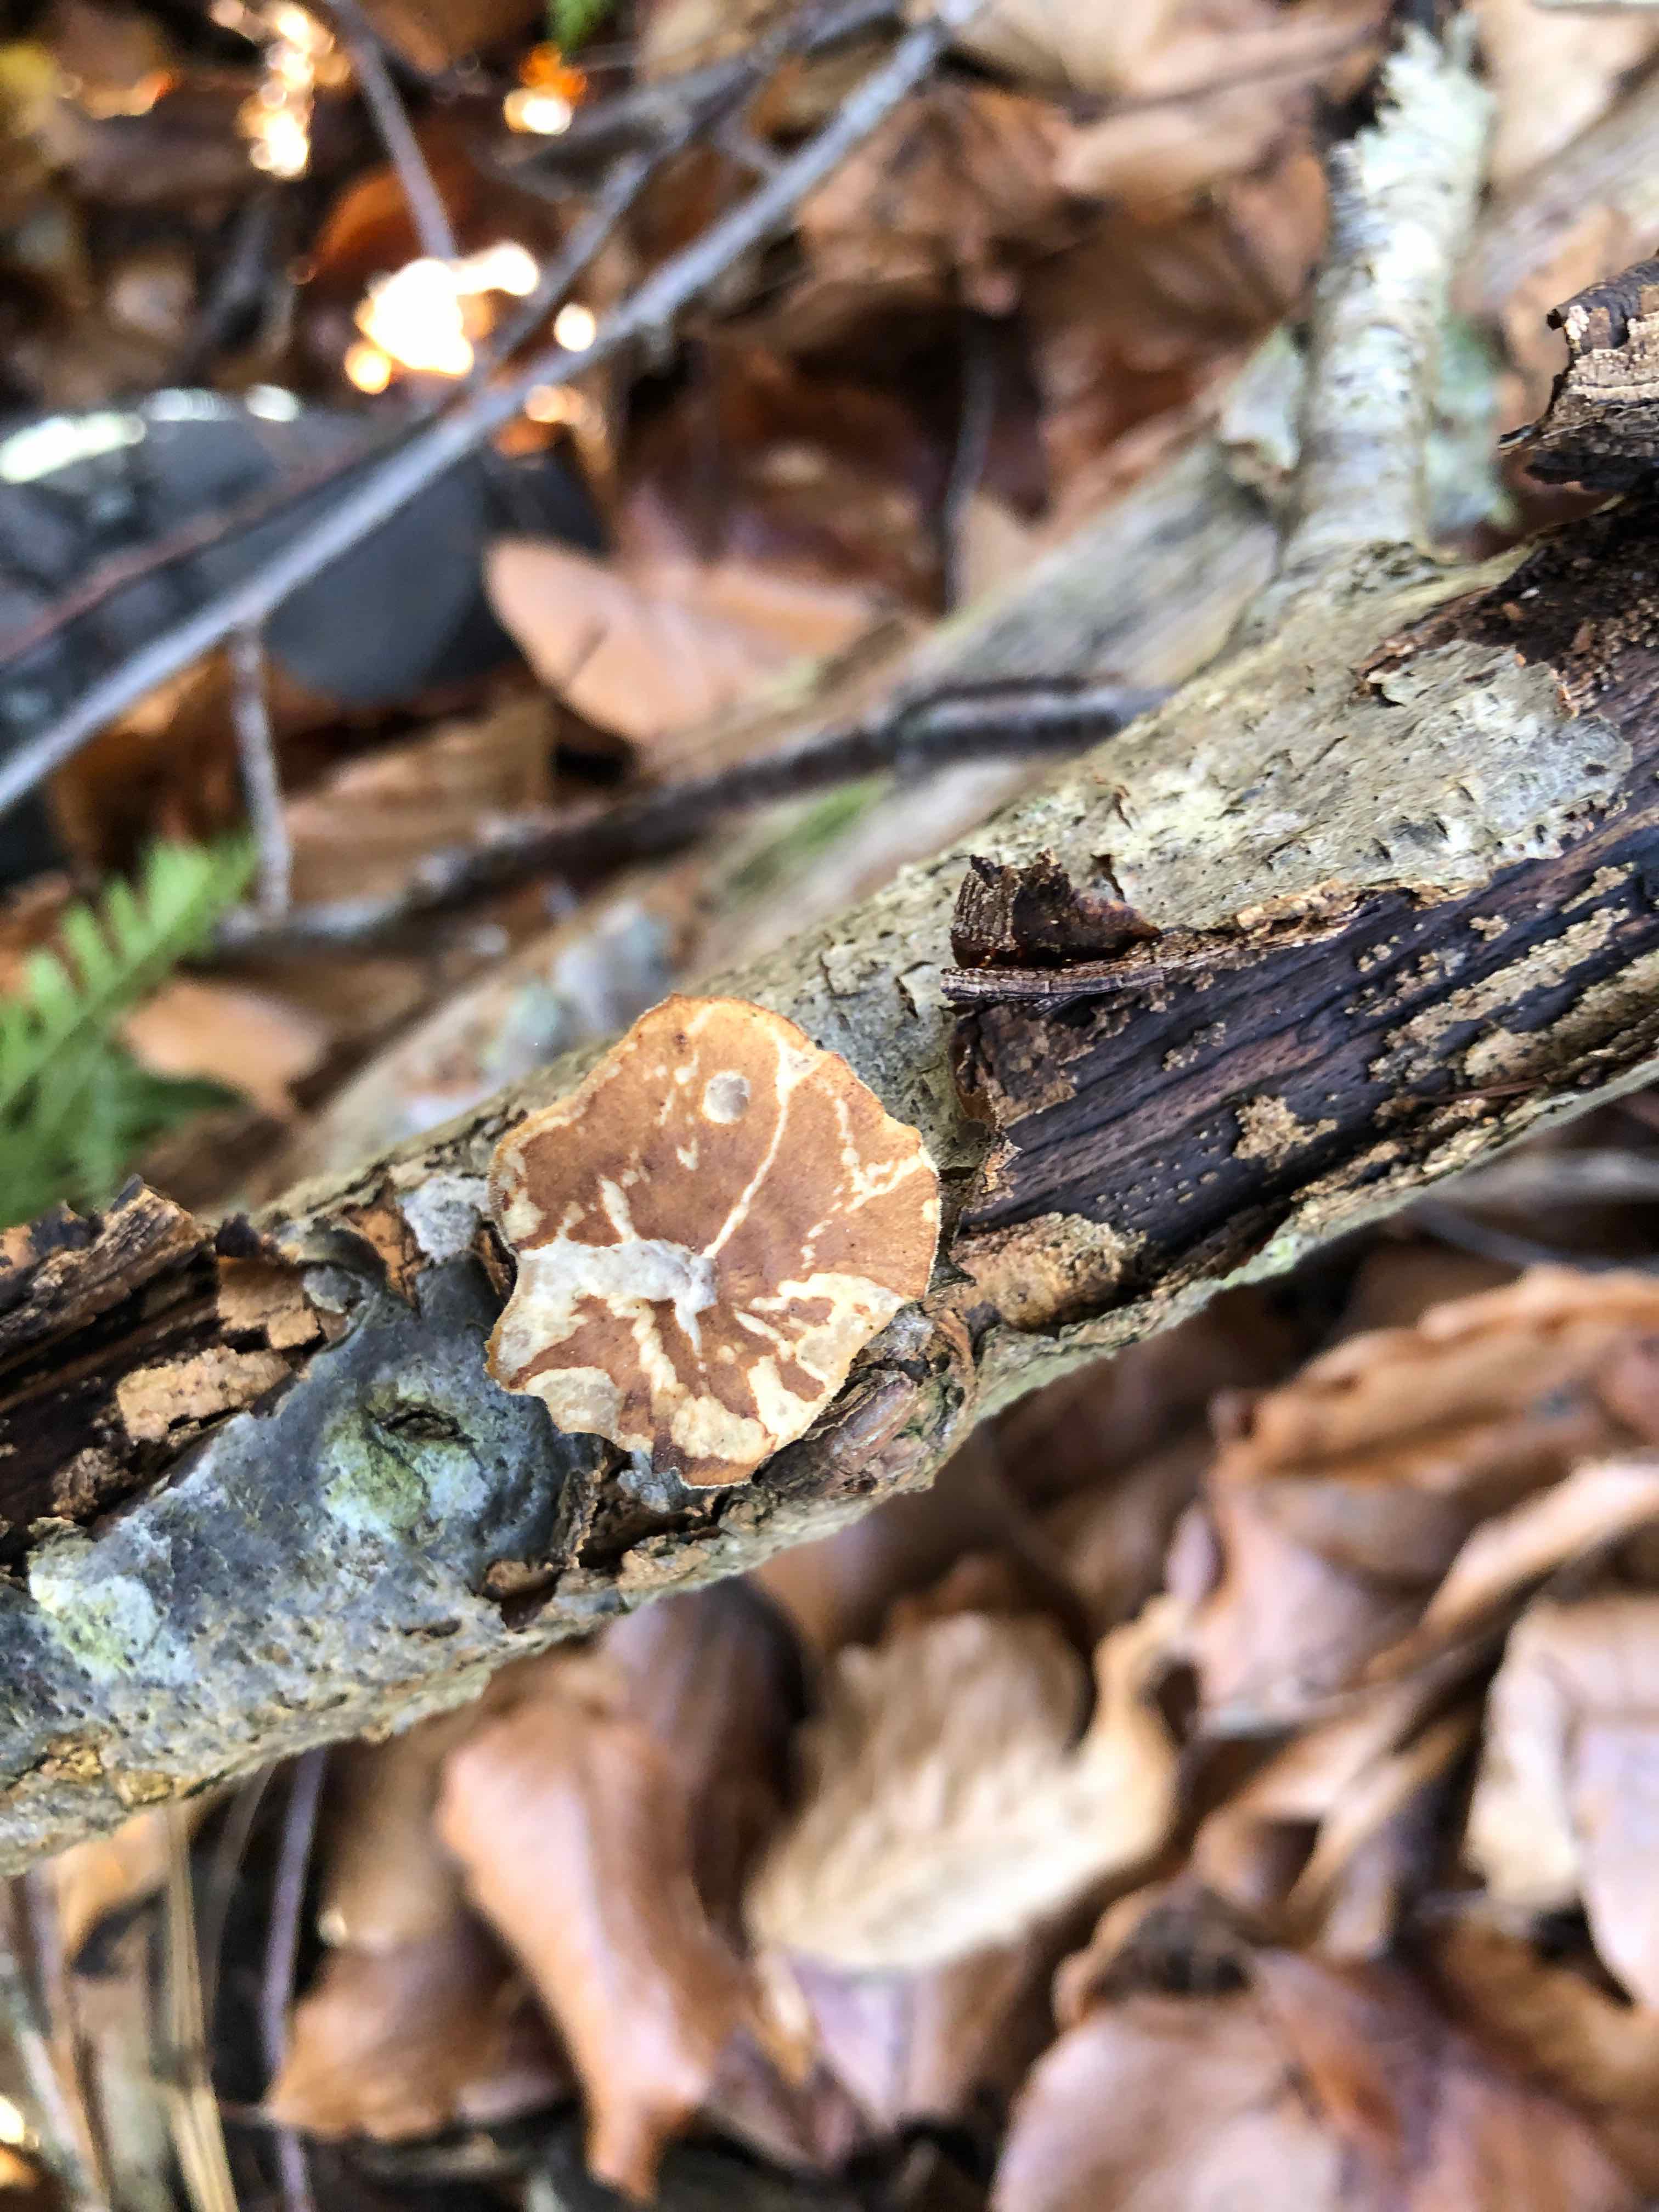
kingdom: Fungi
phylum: Basidiomycota
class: Agaricomycetes
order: Polyporales
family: Polyporaceae
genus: Lentinus
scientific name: Lentinus brumalis
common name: vinter-stilkporesvamp
